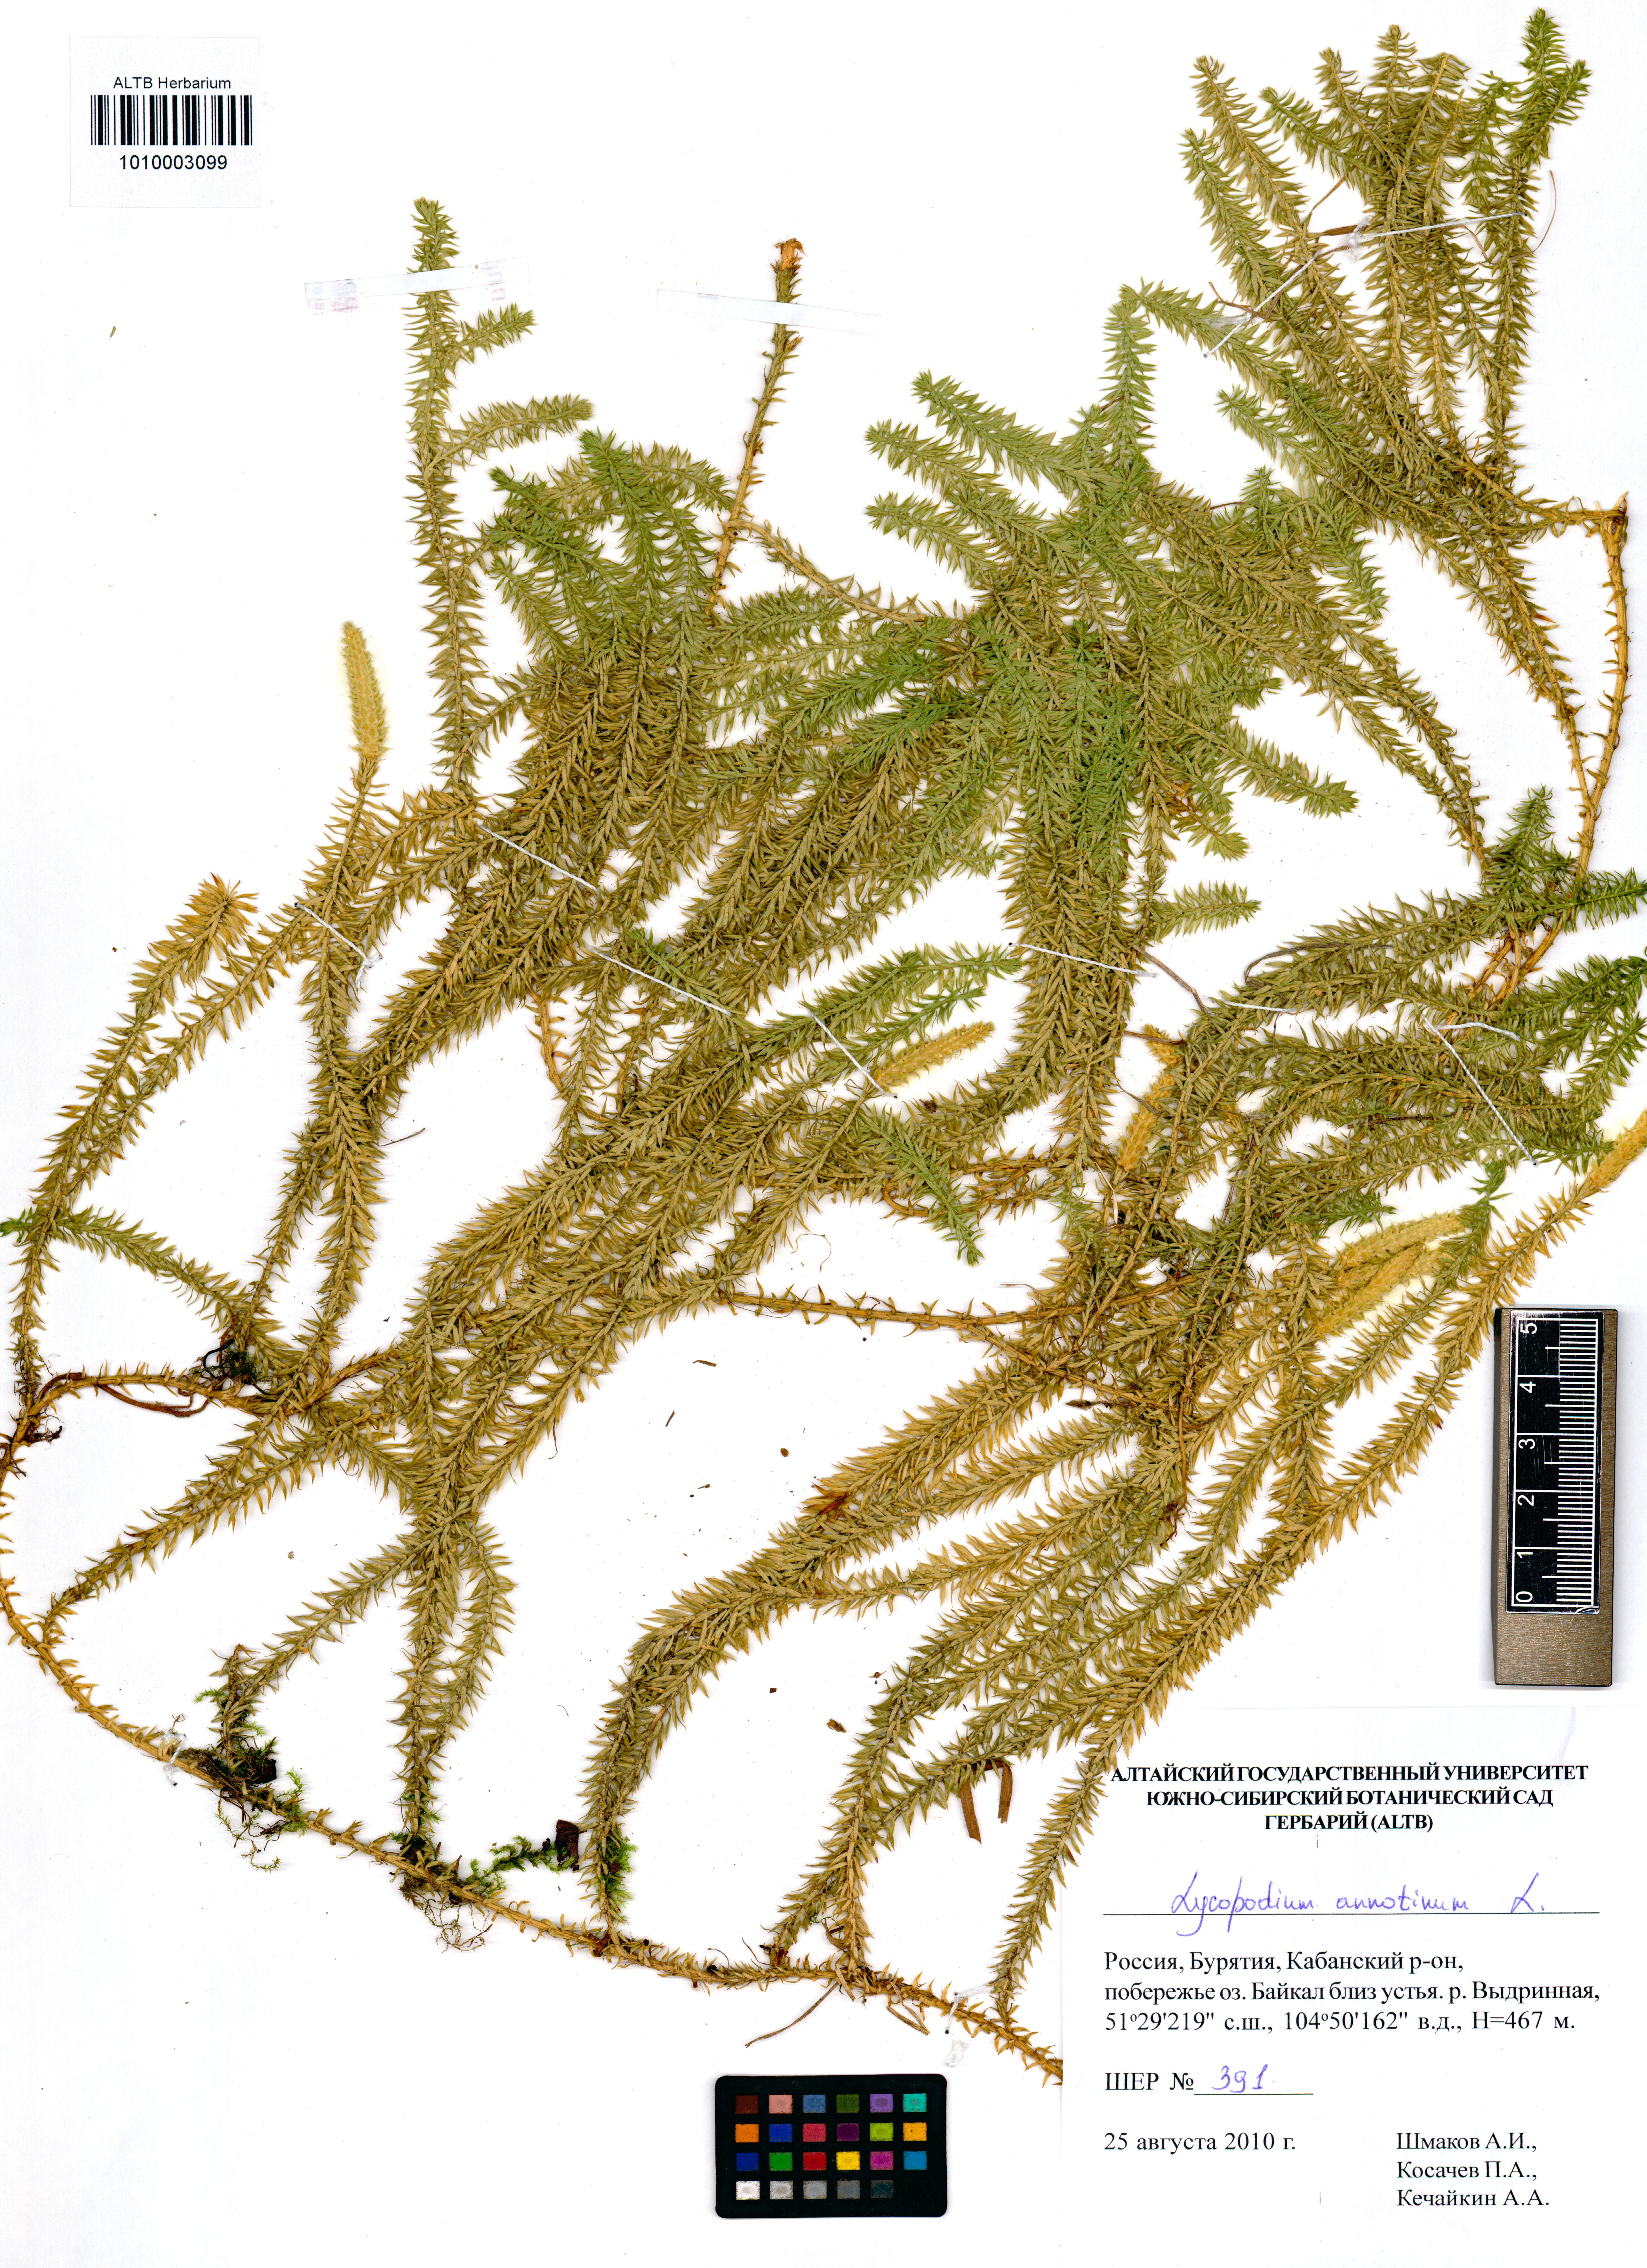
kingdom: Plantae
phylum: Tracheophyta
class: Lycopodiopsida
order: Lycopodiales
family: Lycopodiaceae
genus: Spinulum
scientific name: Spinulum annotinum
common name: Interrupted club-moss
